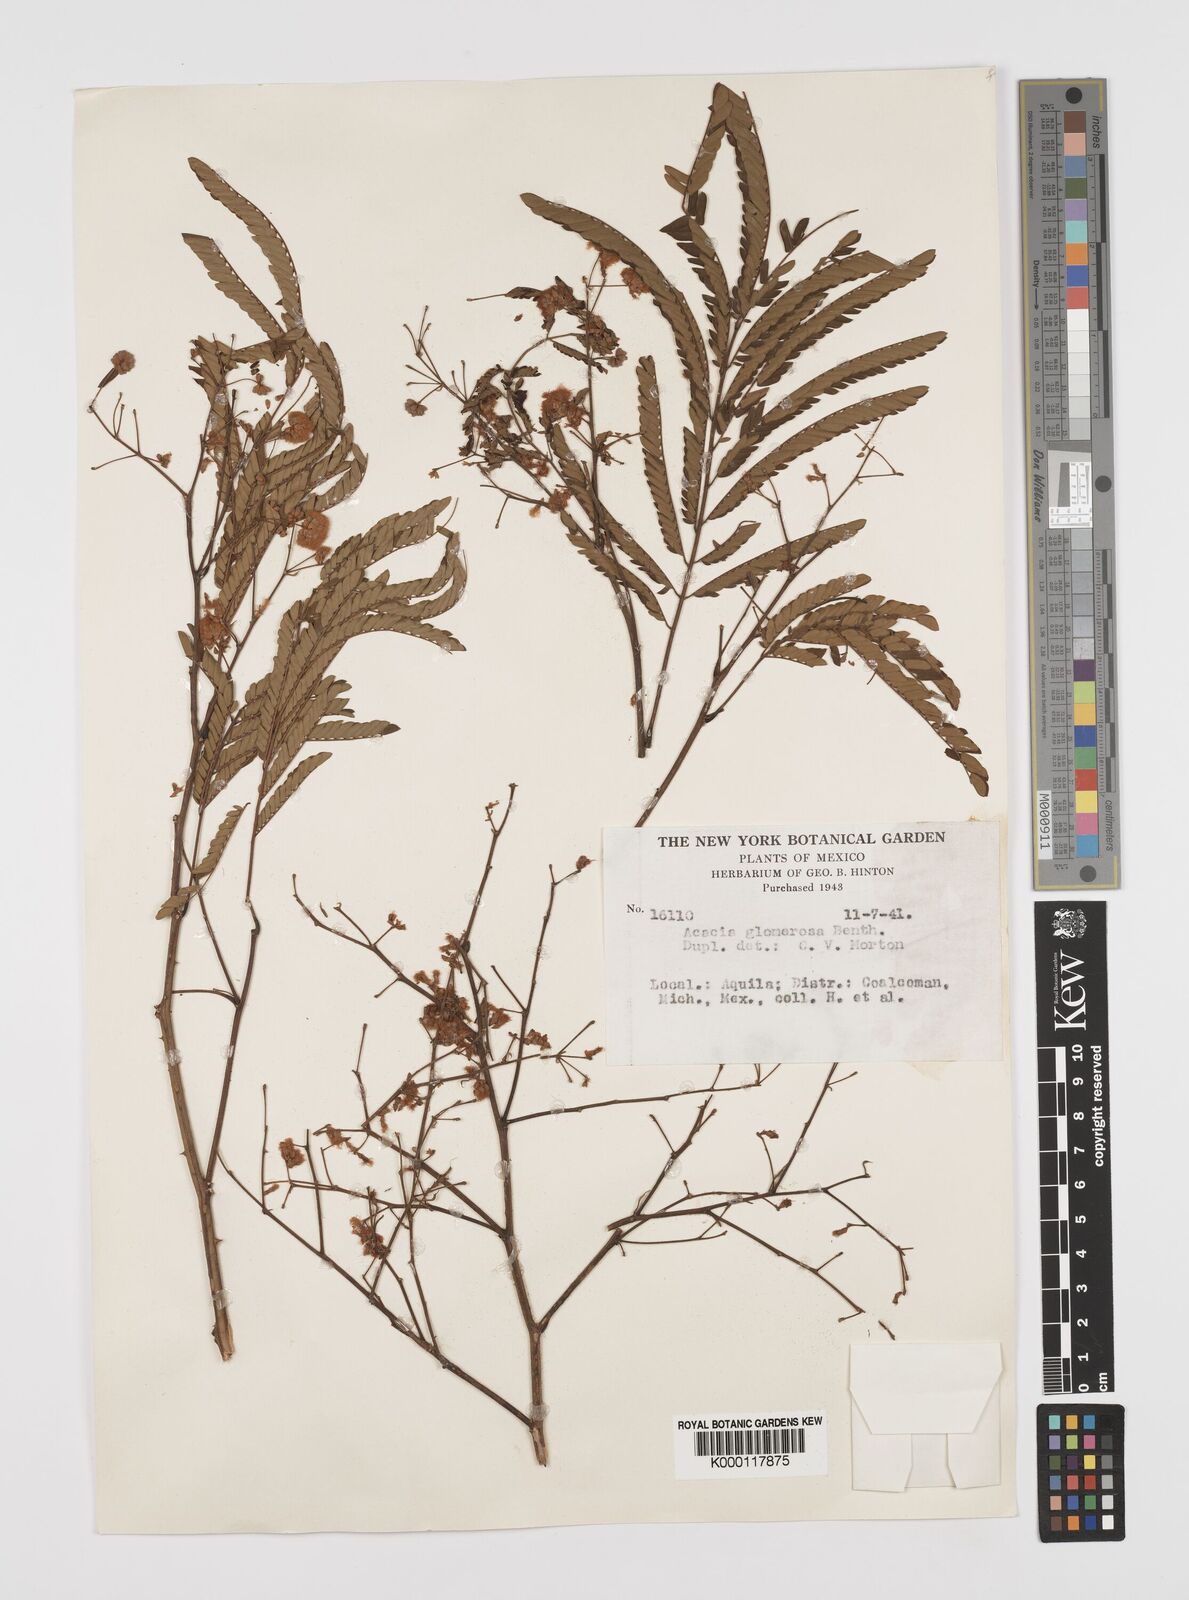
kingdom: Plantae
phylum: Tracheophyta
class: Magnoliopsida
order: Fabales
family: Fabaceae
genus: Senegalia
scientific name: Senegalia polyphylla
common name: White-tamarind
